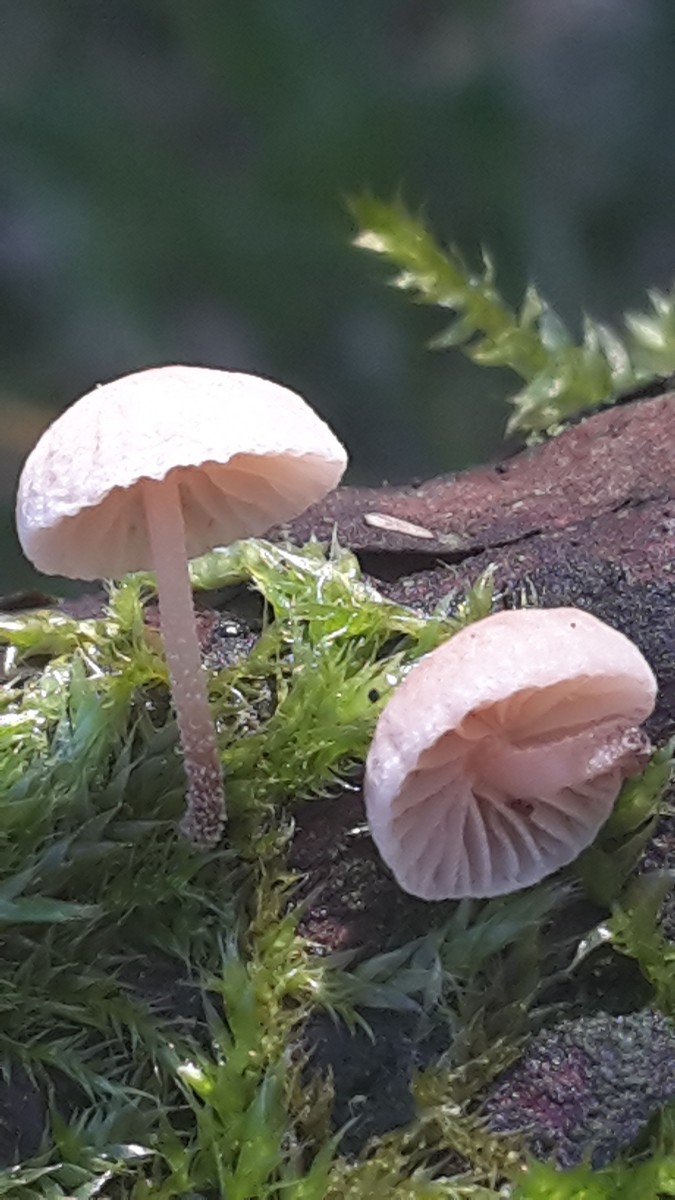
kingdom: Fungi
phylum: Basidiomycota
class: Agaricomycetes
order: Agaricales
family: Omphalotaceae
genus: Collybiopsis
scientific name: Collybiopsis ramealis
